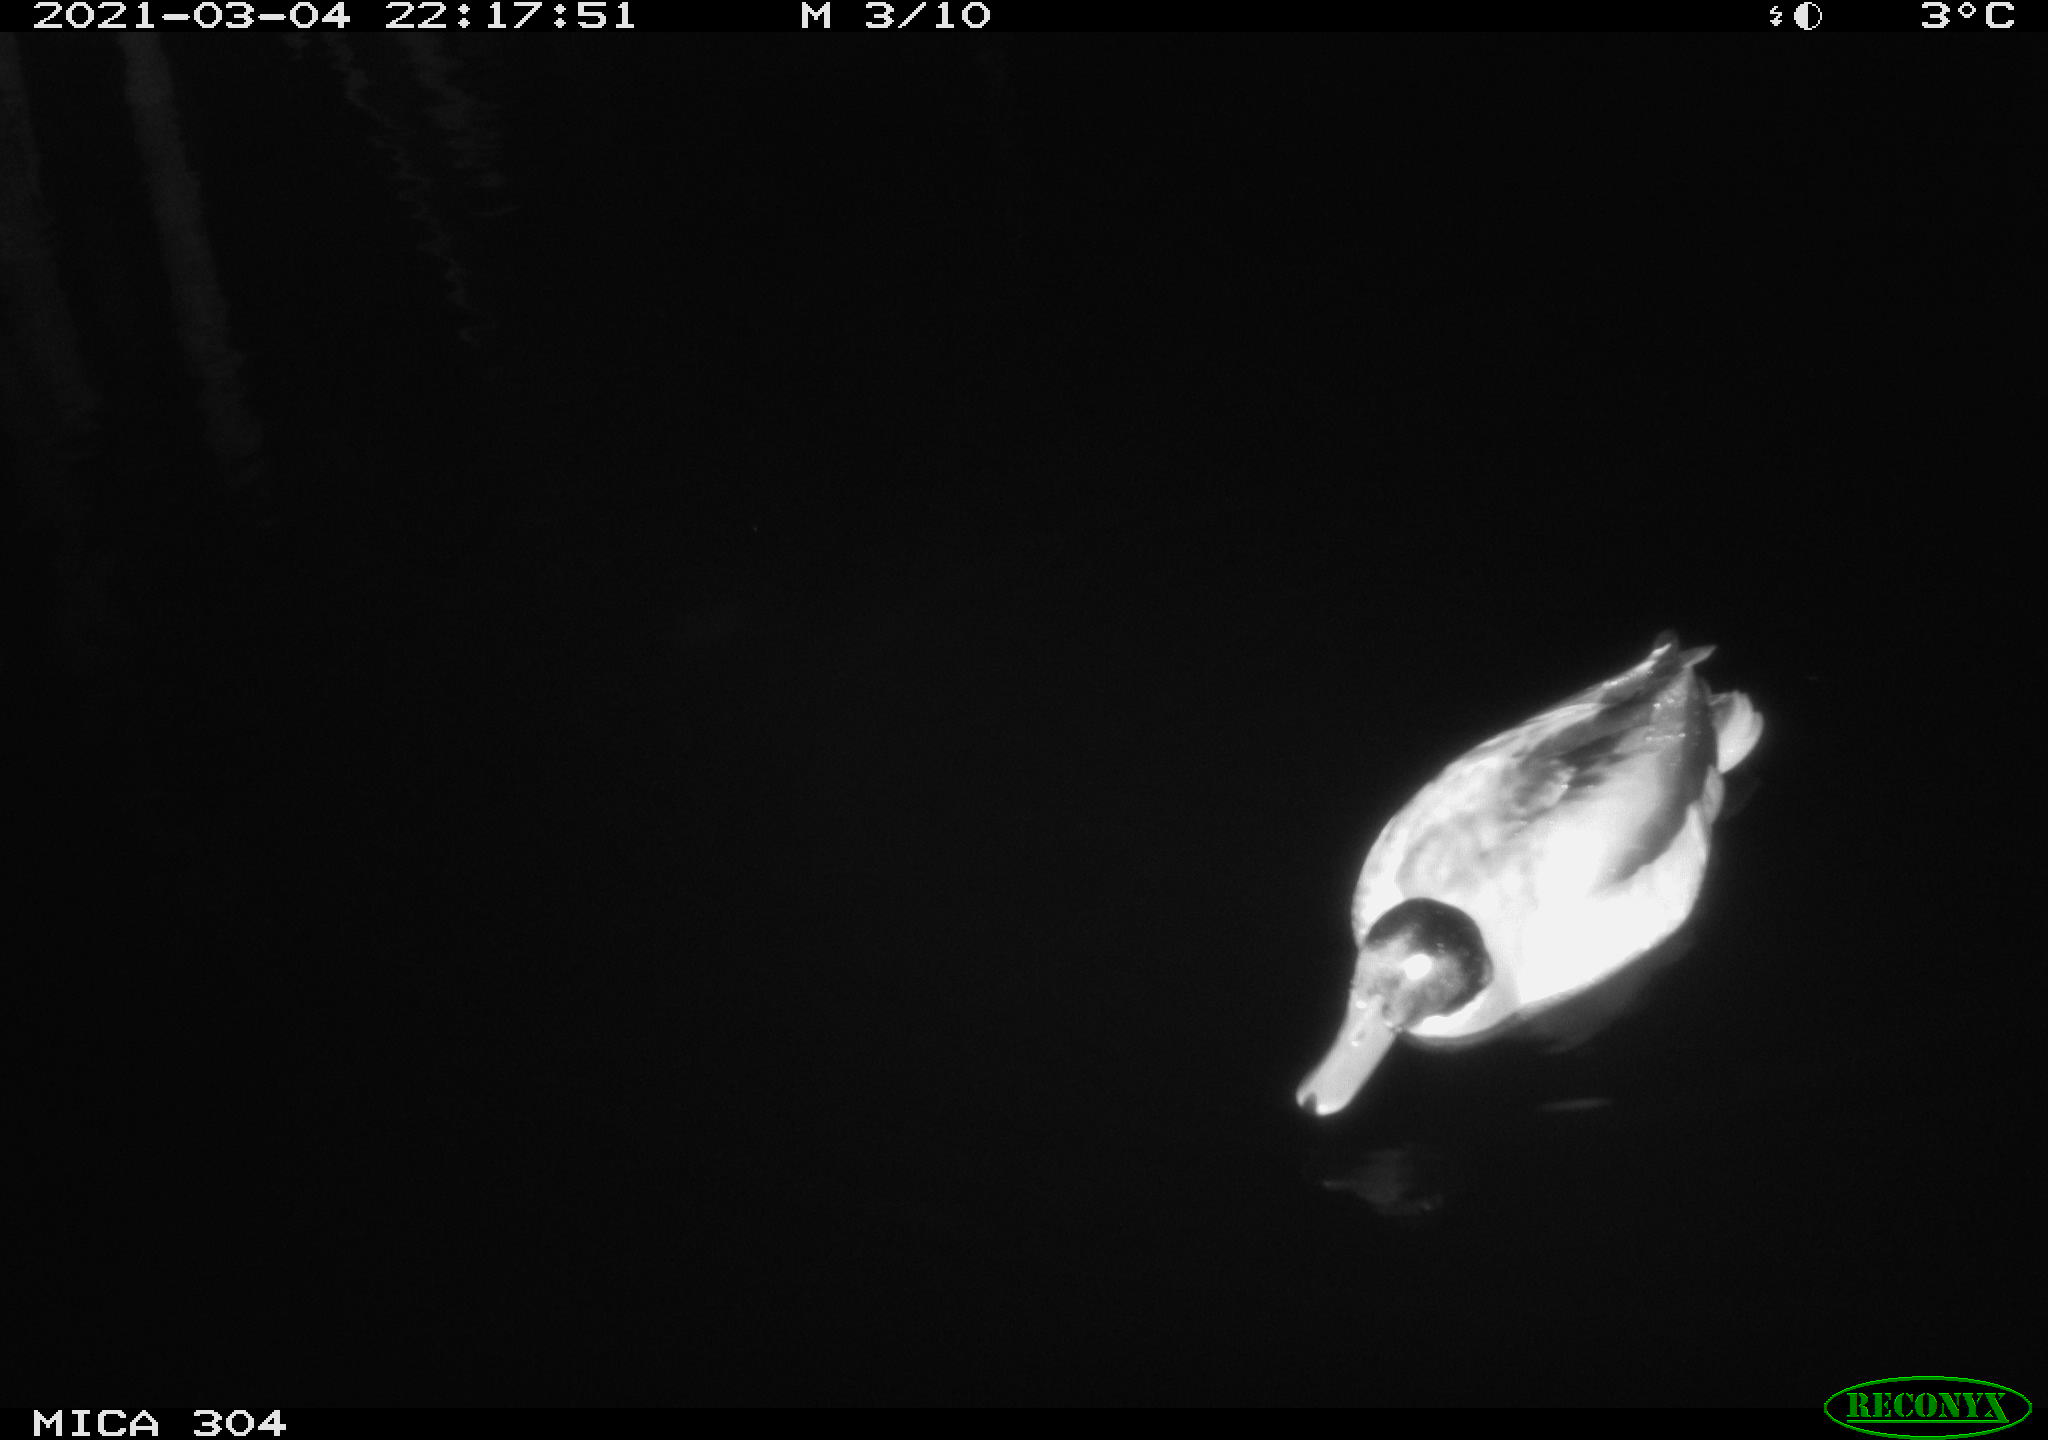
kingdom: Animalia
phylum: Chordata
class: Aves
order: Anseriformes
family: Anatidae
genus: Anas
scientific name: Anas platyrhynchos
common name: Mallard
